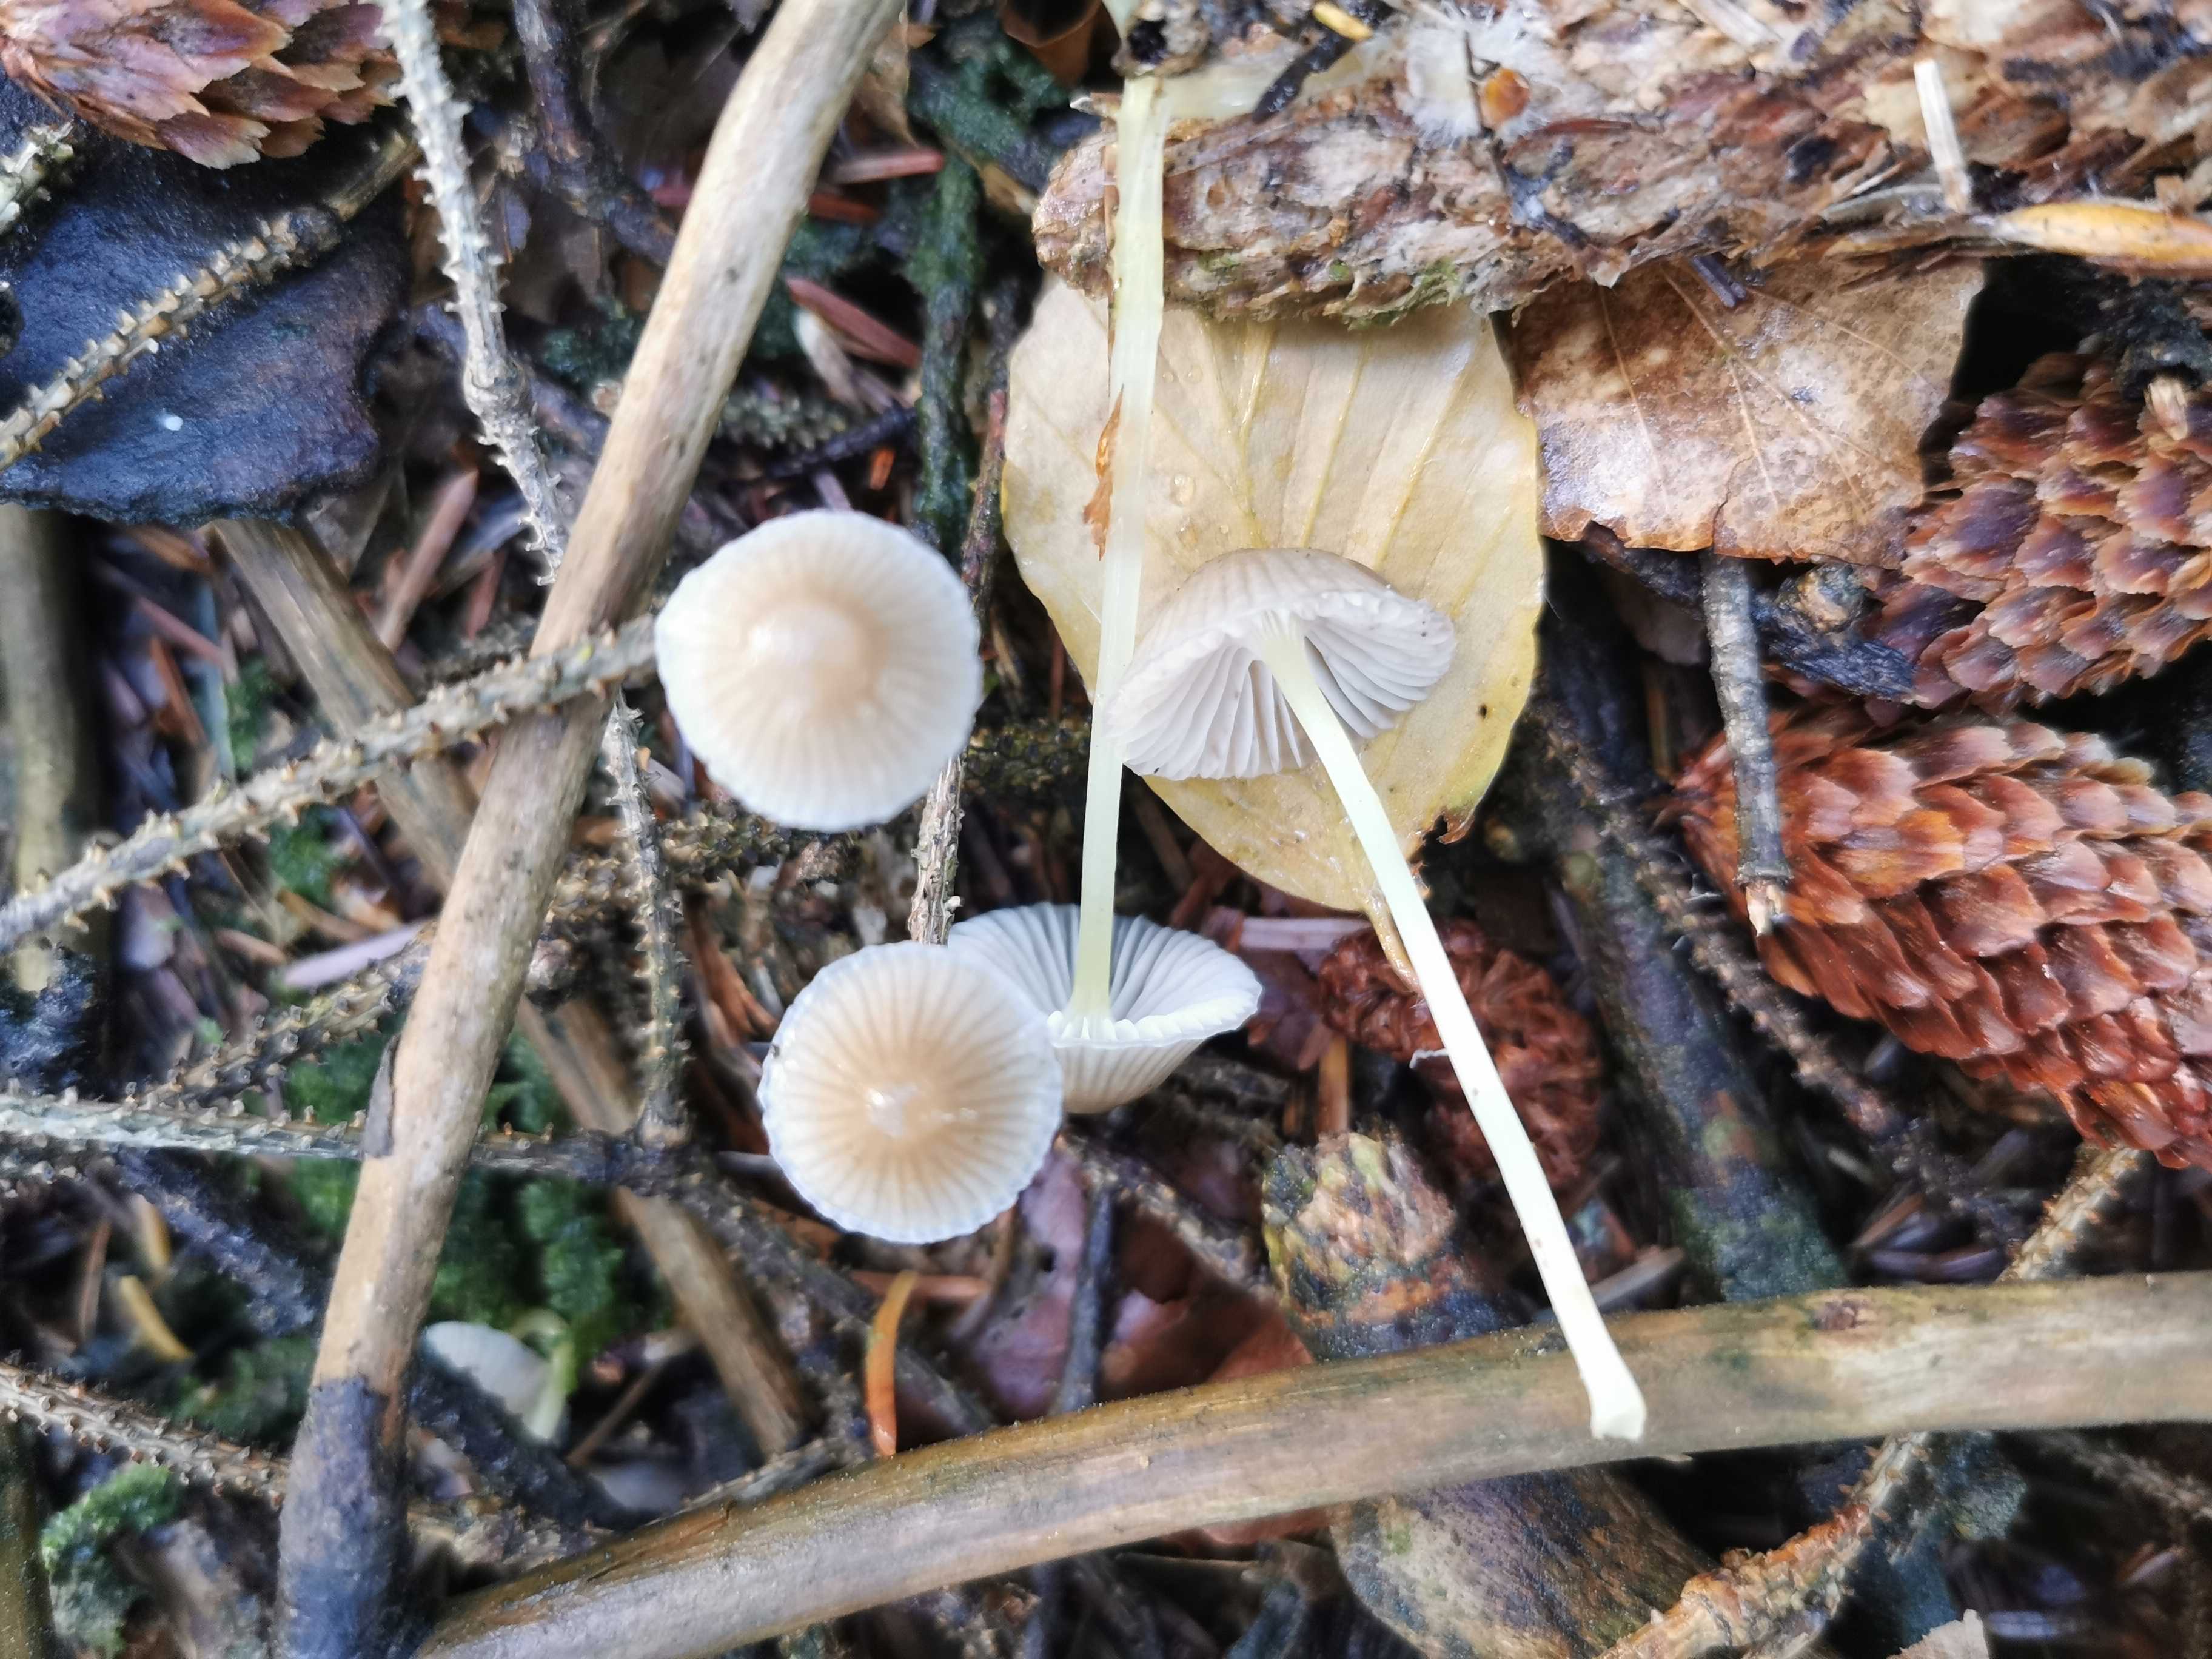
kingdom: Fungi
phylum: Basidiomycota
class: Agaricomycetes
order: Agaricales
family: Mycenaceae
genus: Mycena
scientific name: Mycena epipterygia
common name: gulstokket huesvamp
